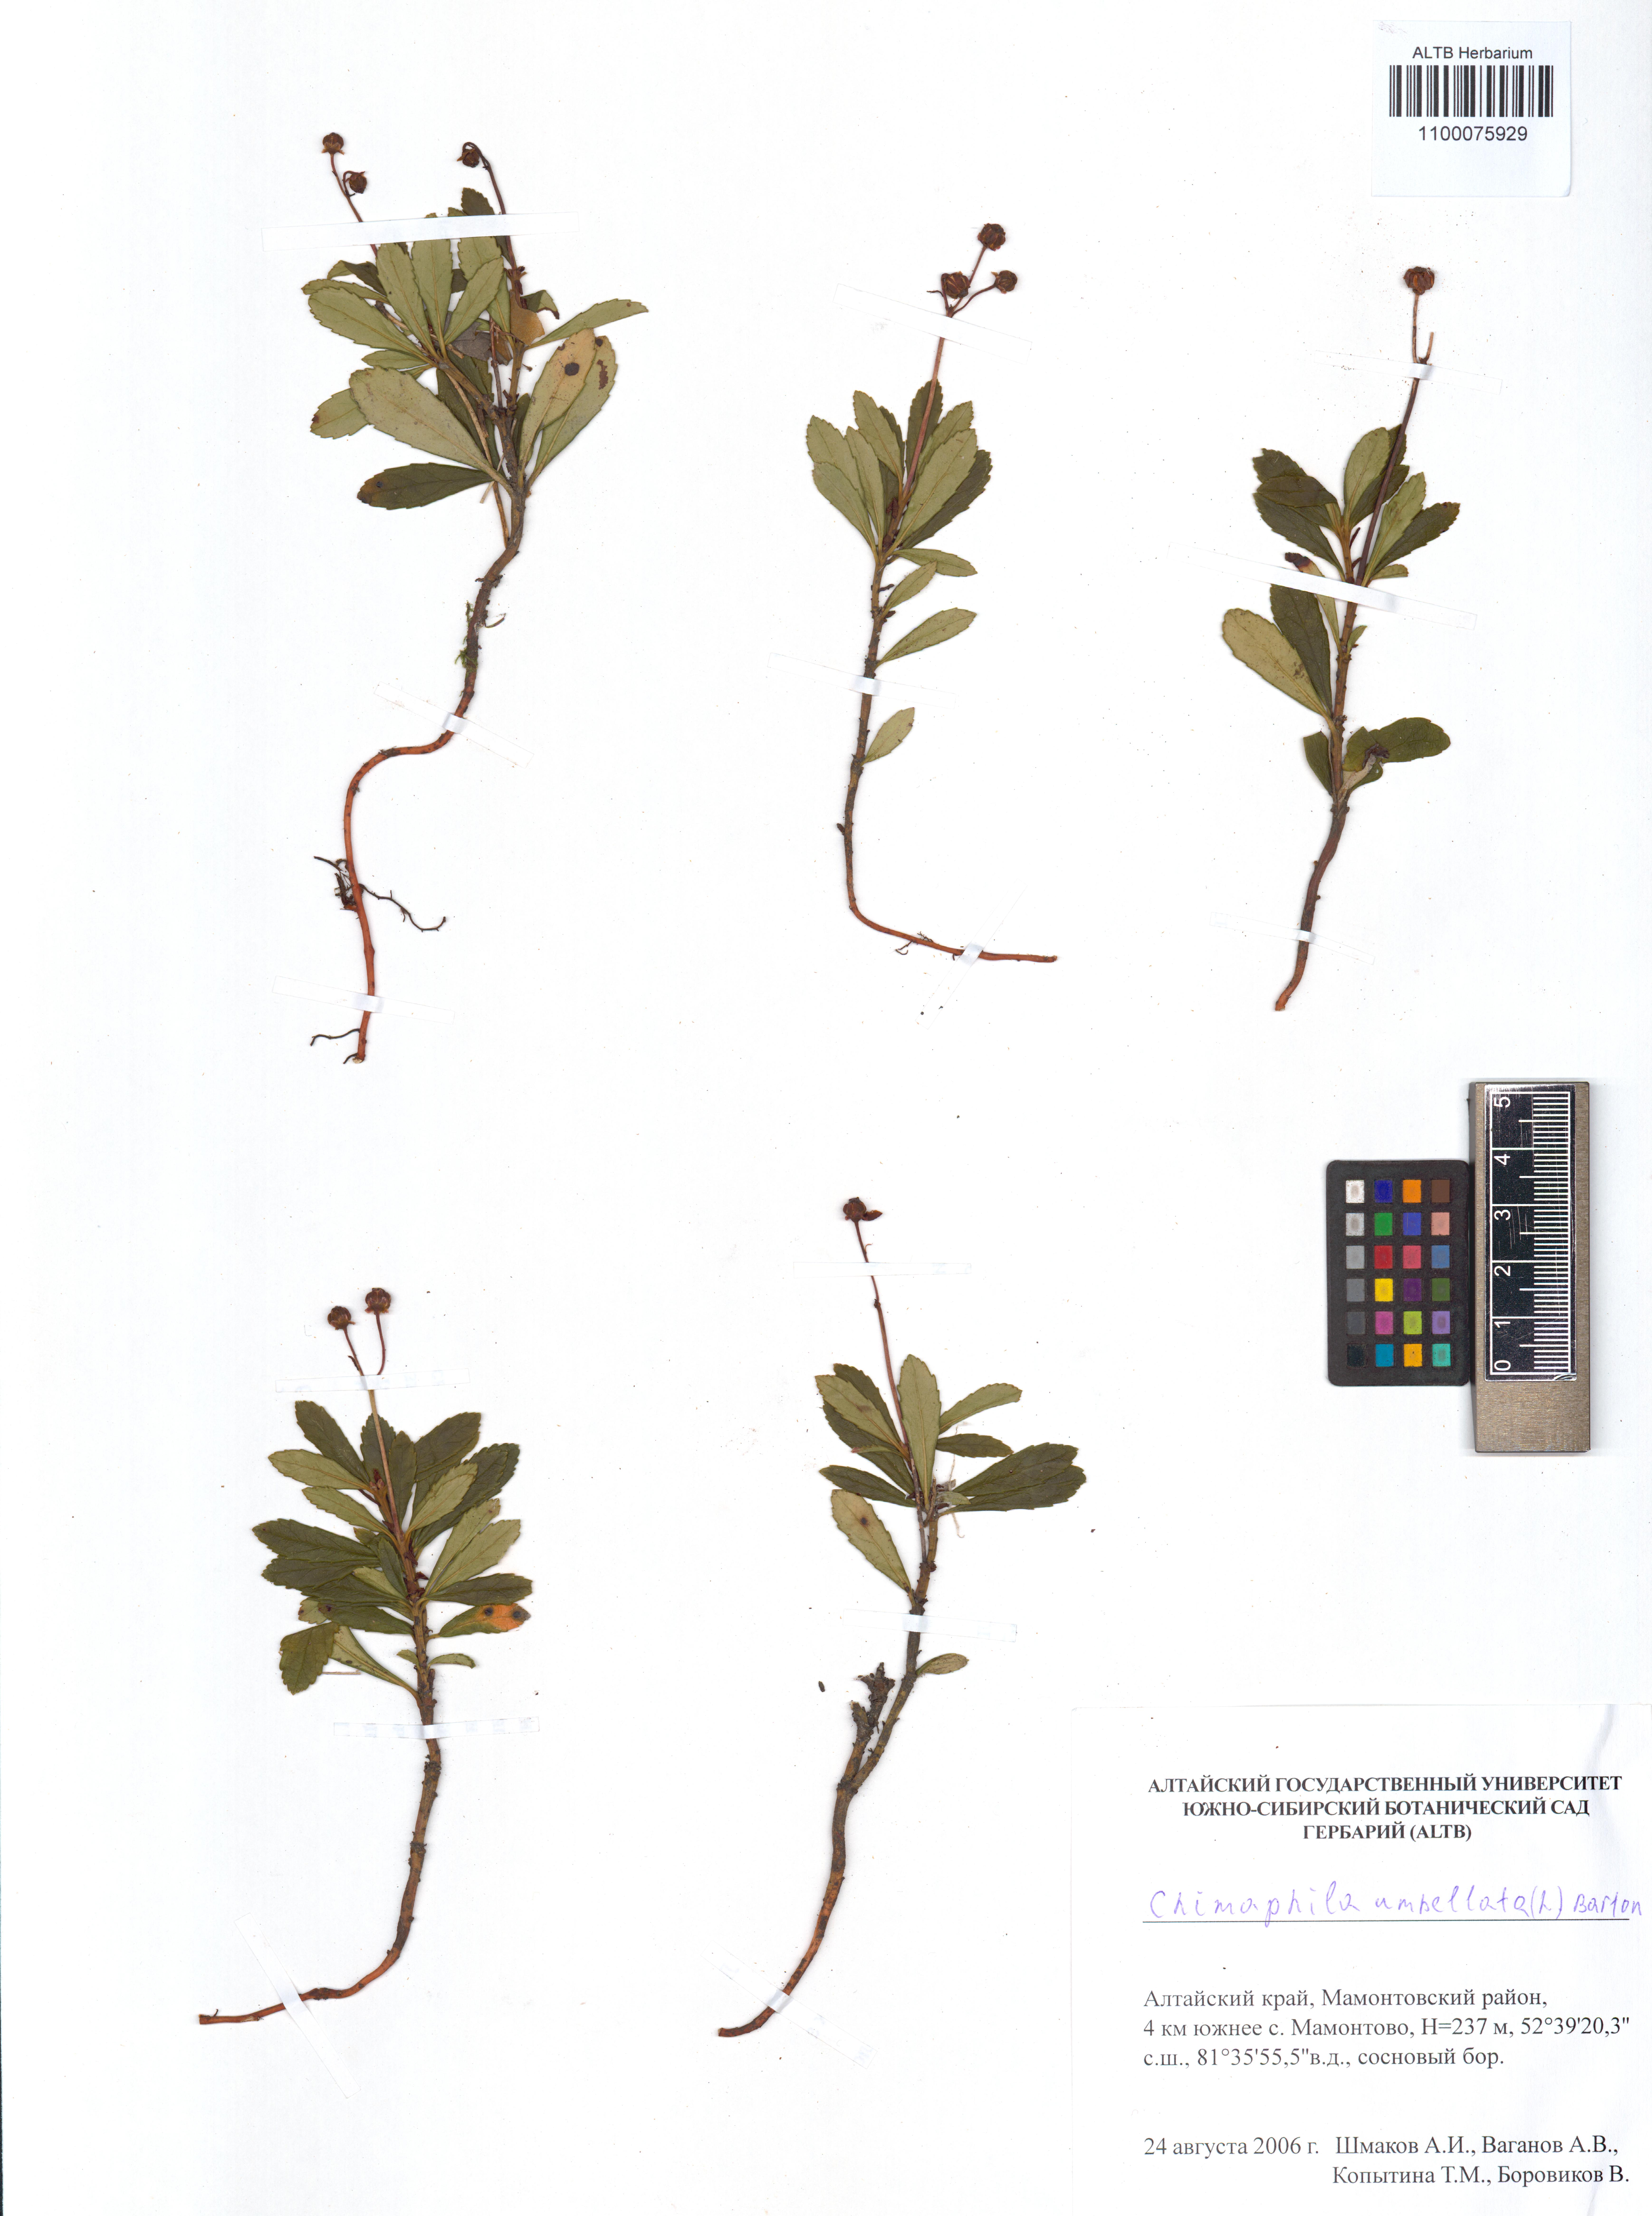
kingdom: Plantae
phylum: Tracheophyta
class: Magnoliopsida
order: Ericales
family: Ericaceae
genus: Chimaphila
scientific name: Chimaphila umbellata
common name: Pipsissewa
